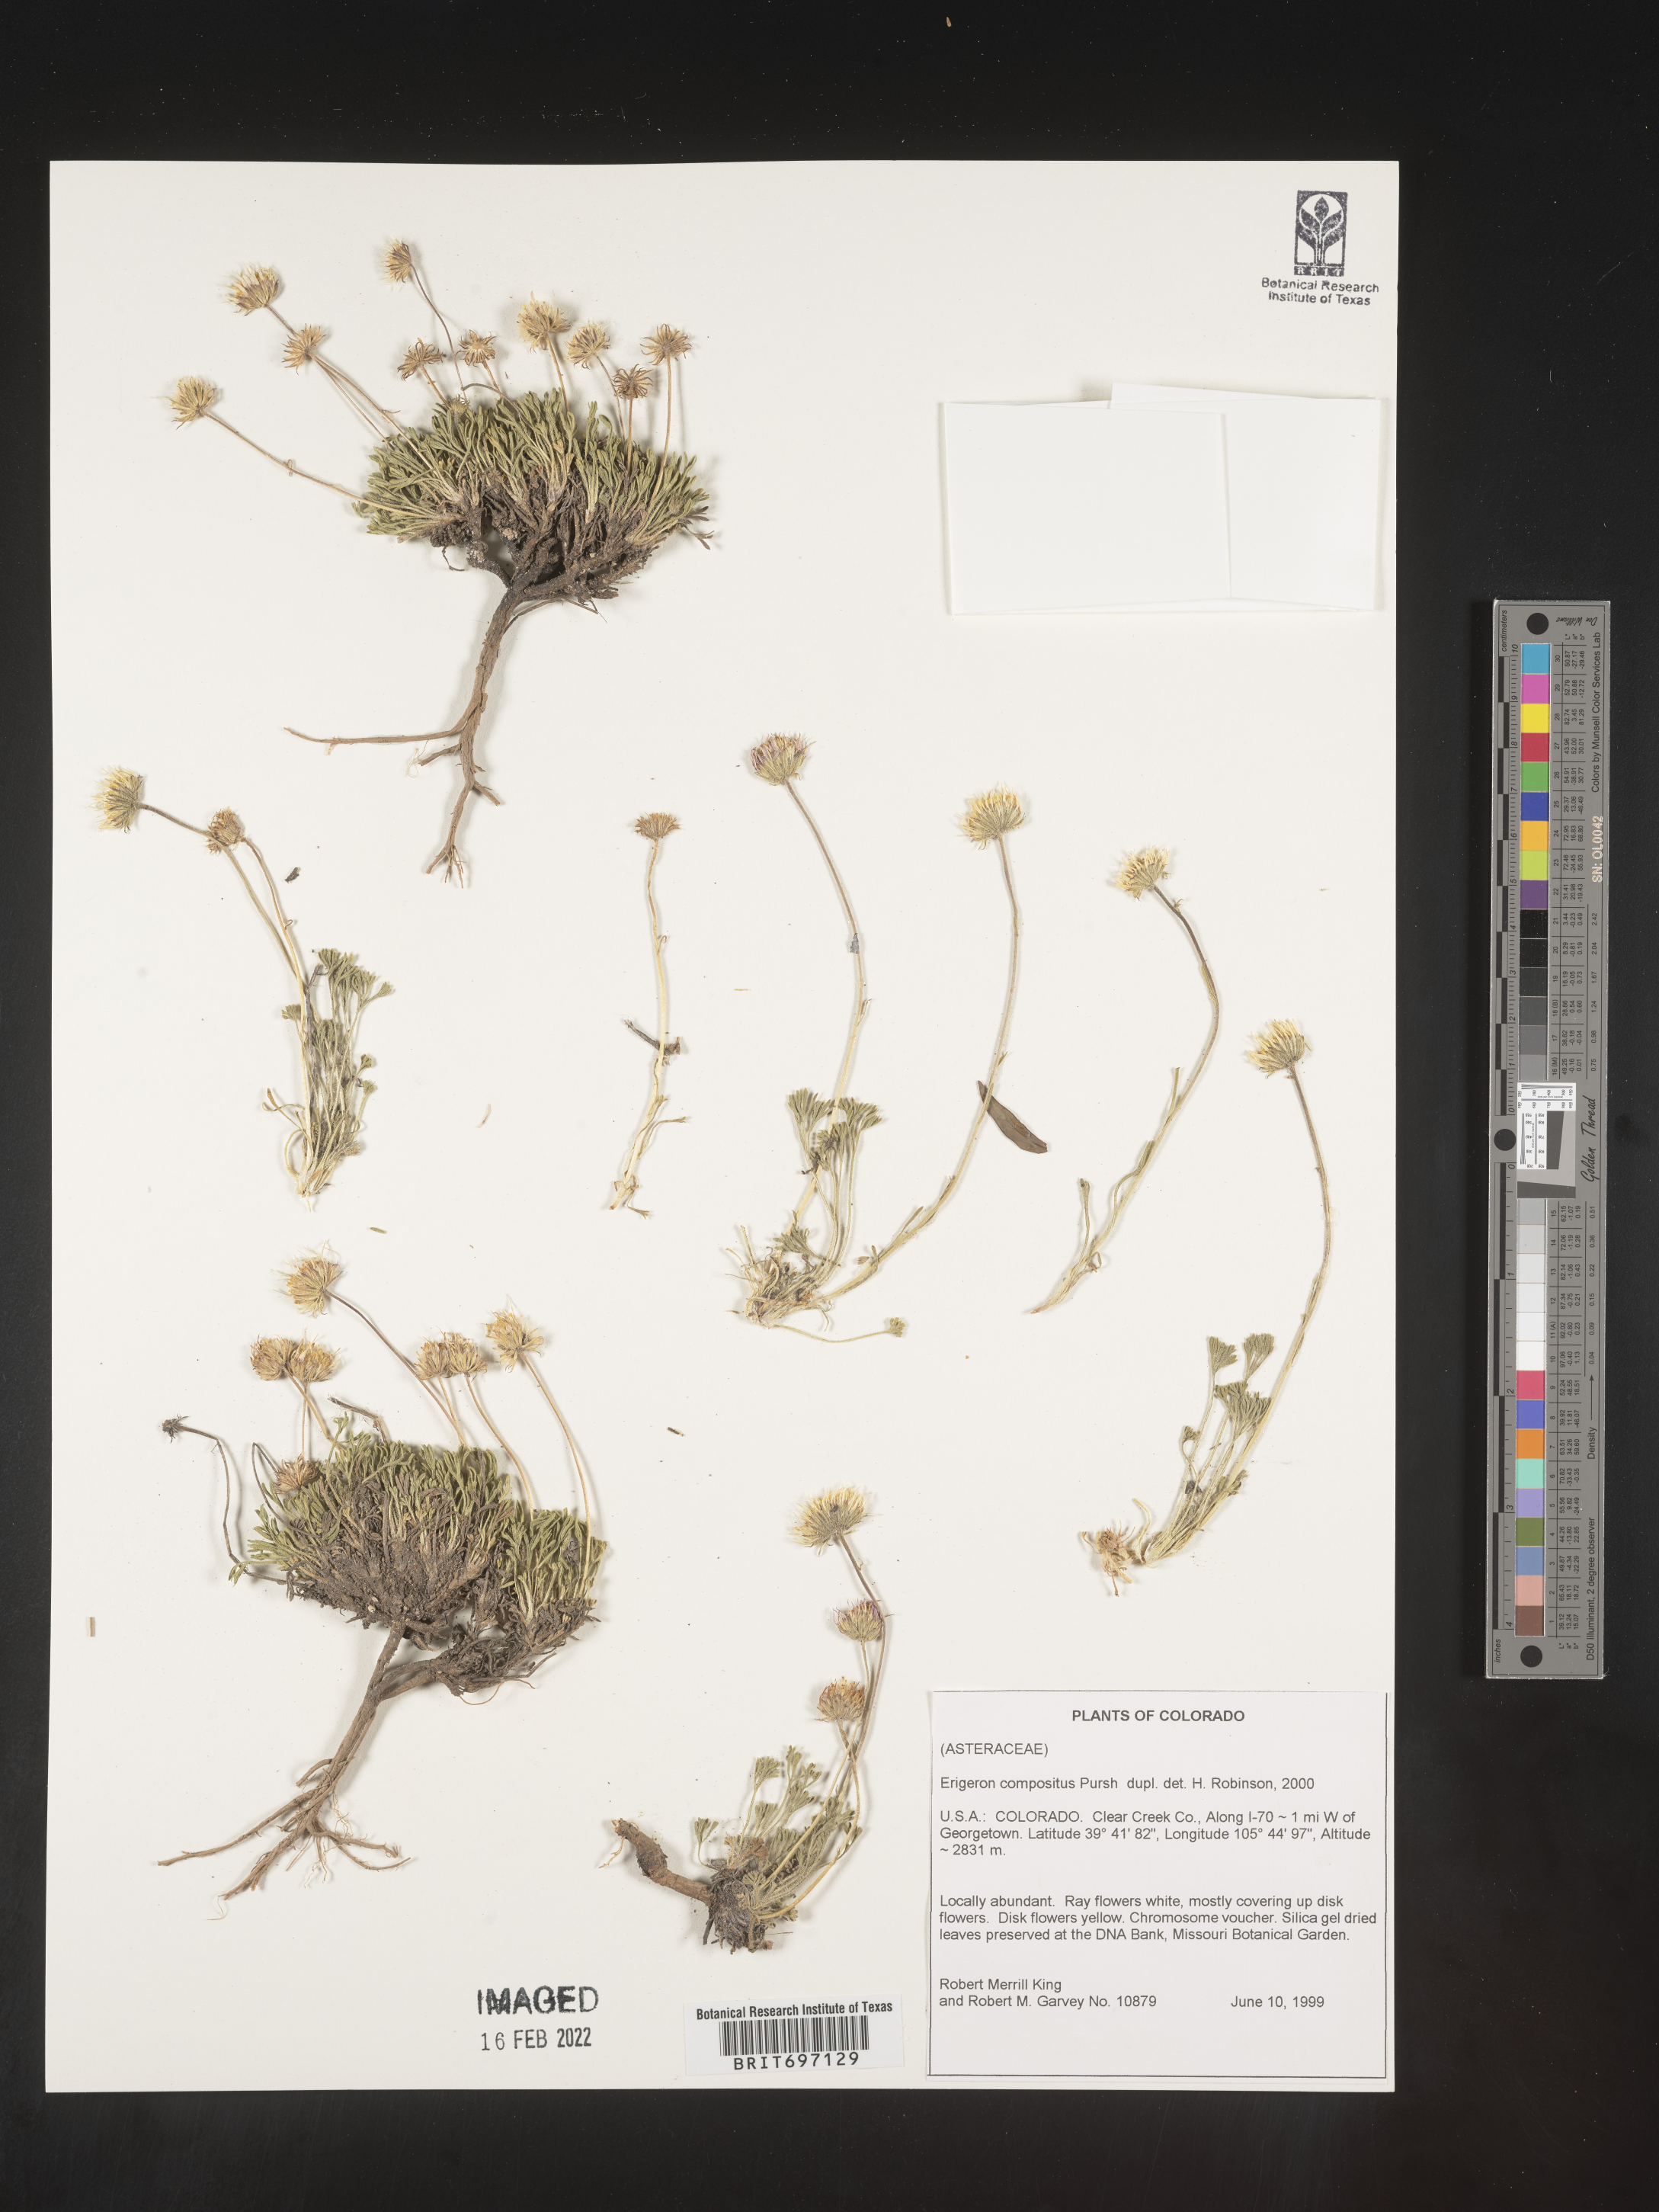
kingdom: Plantae
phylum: Tracheophyta
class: Magnoliopsida
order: Asterales
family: Asteraceae
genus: Erigeron
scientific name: Erigeron compositus
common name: Dwarf mountain fleabane
